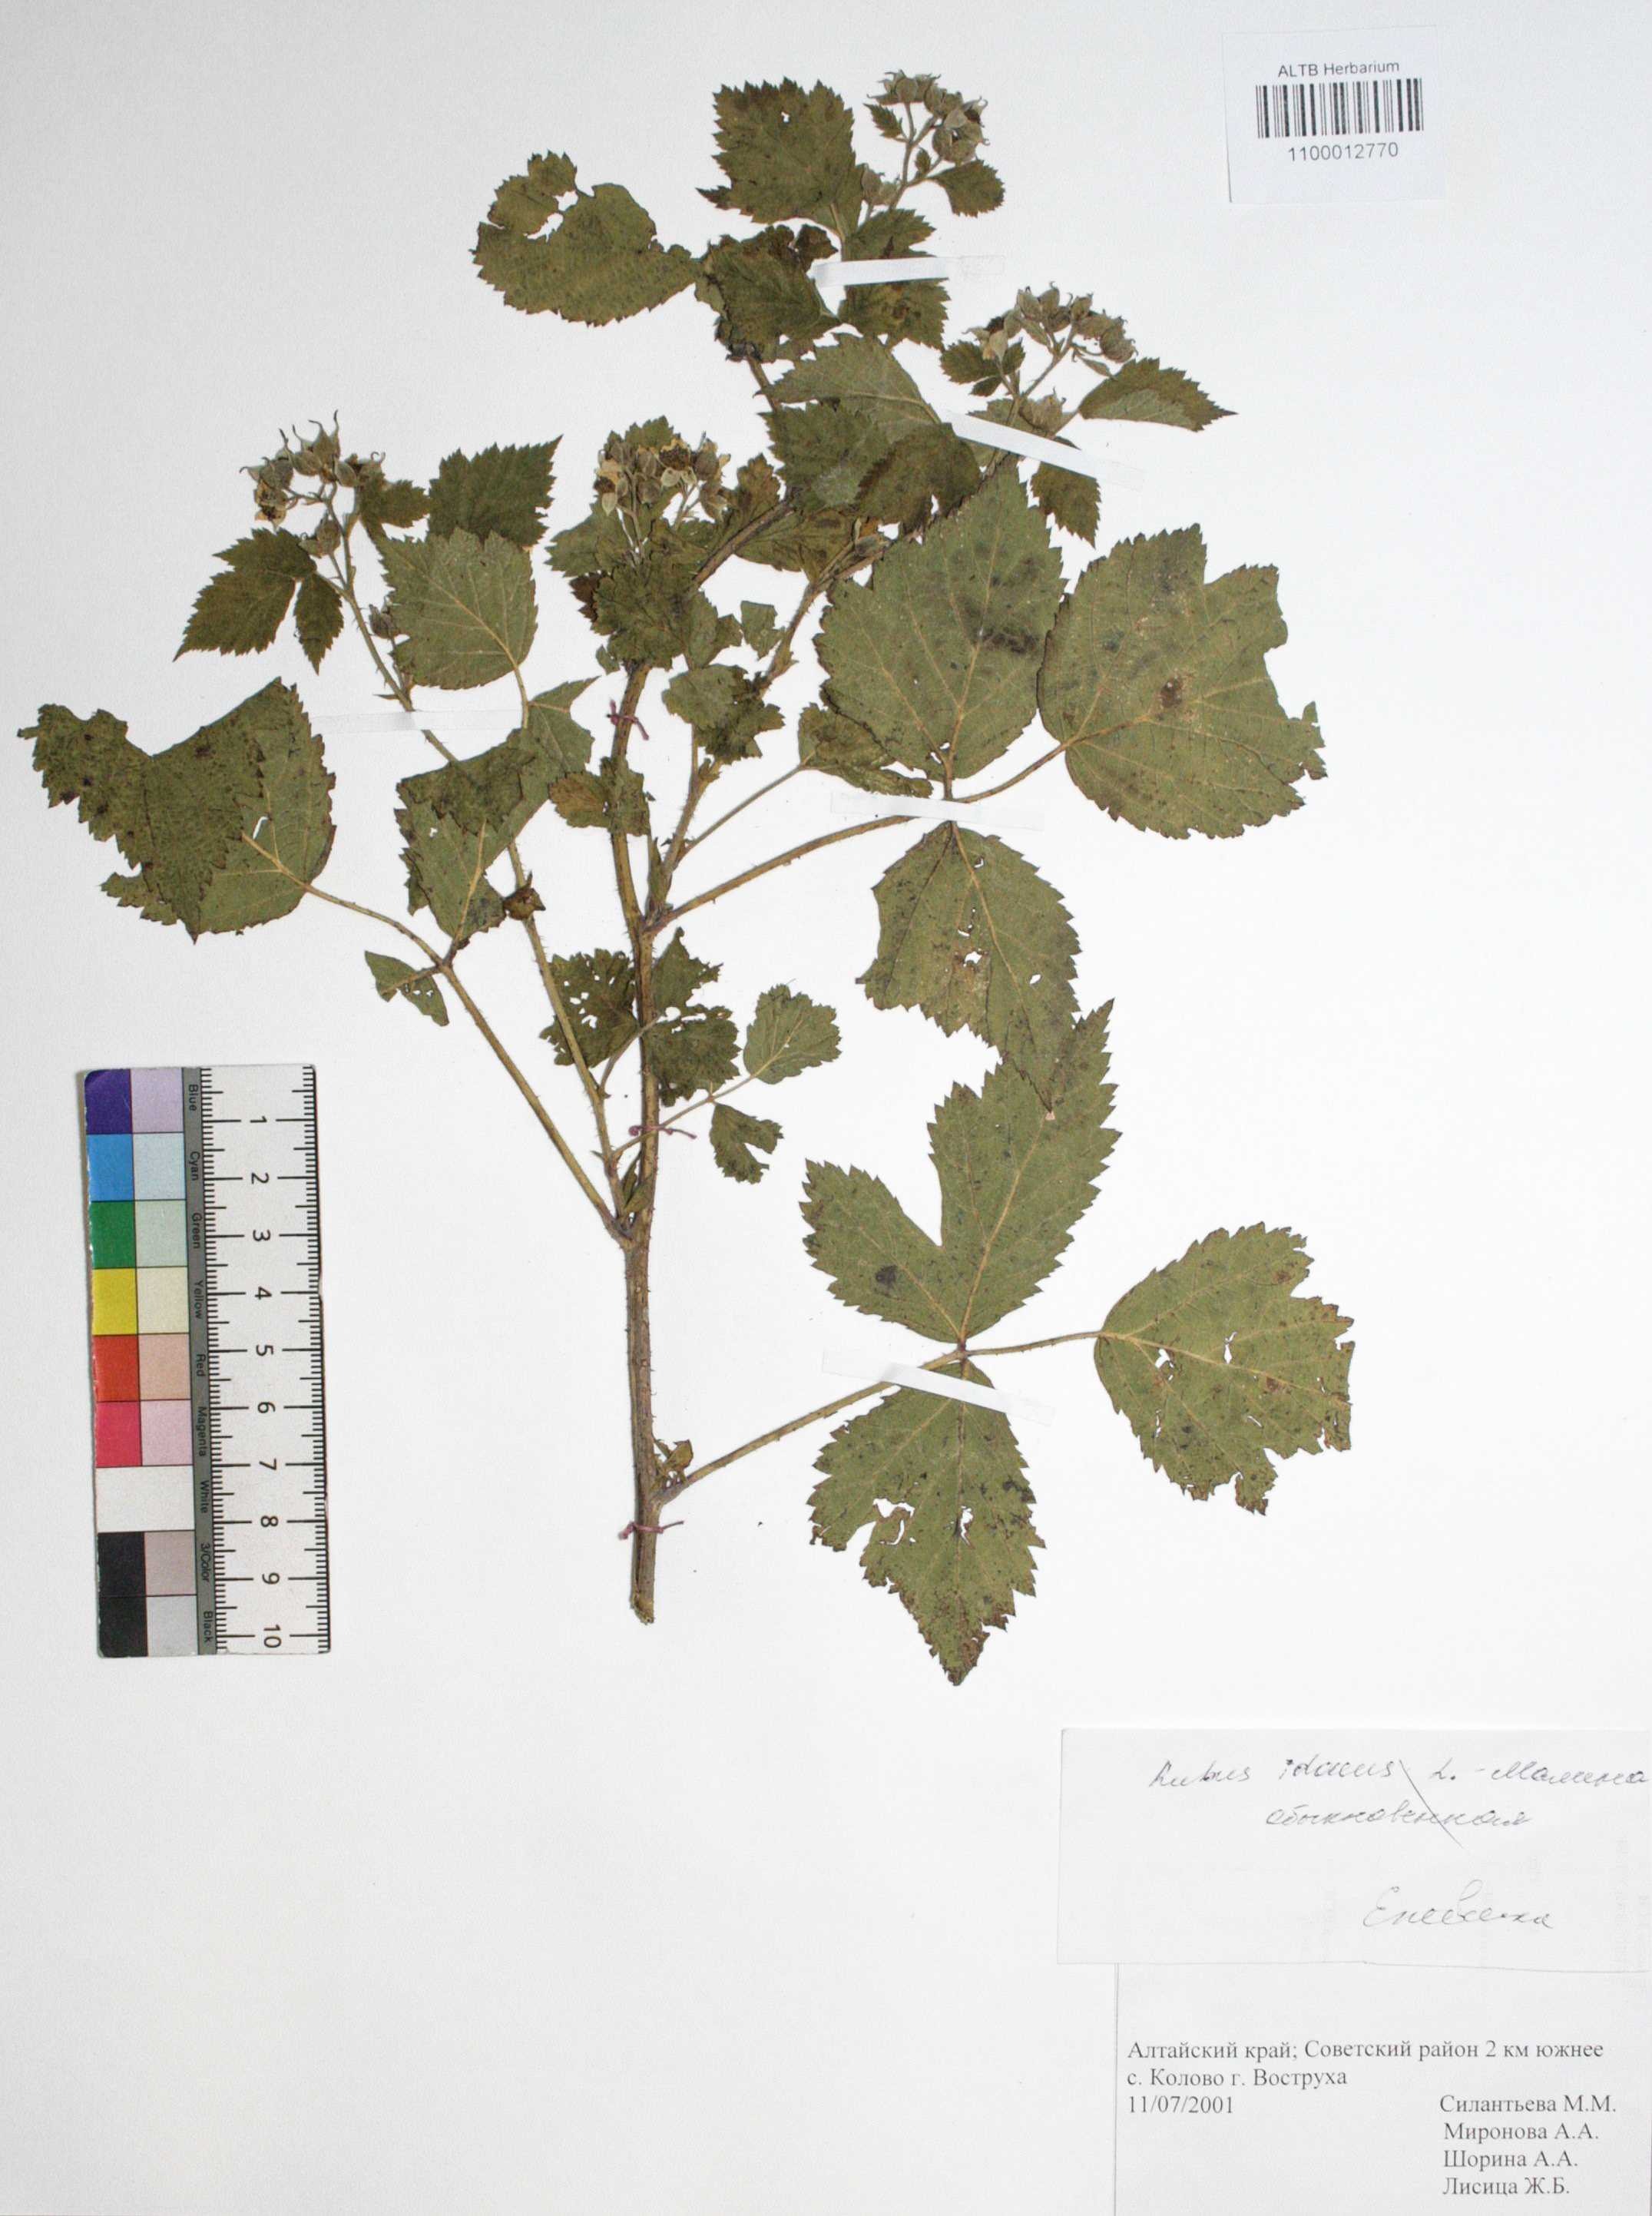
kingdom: Plantae
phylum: Tracheophyta
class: Magnoliopsida
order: Rosales
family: Rosaceae
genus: Rubus
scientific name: Rubus idaeus
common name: Raspberry
